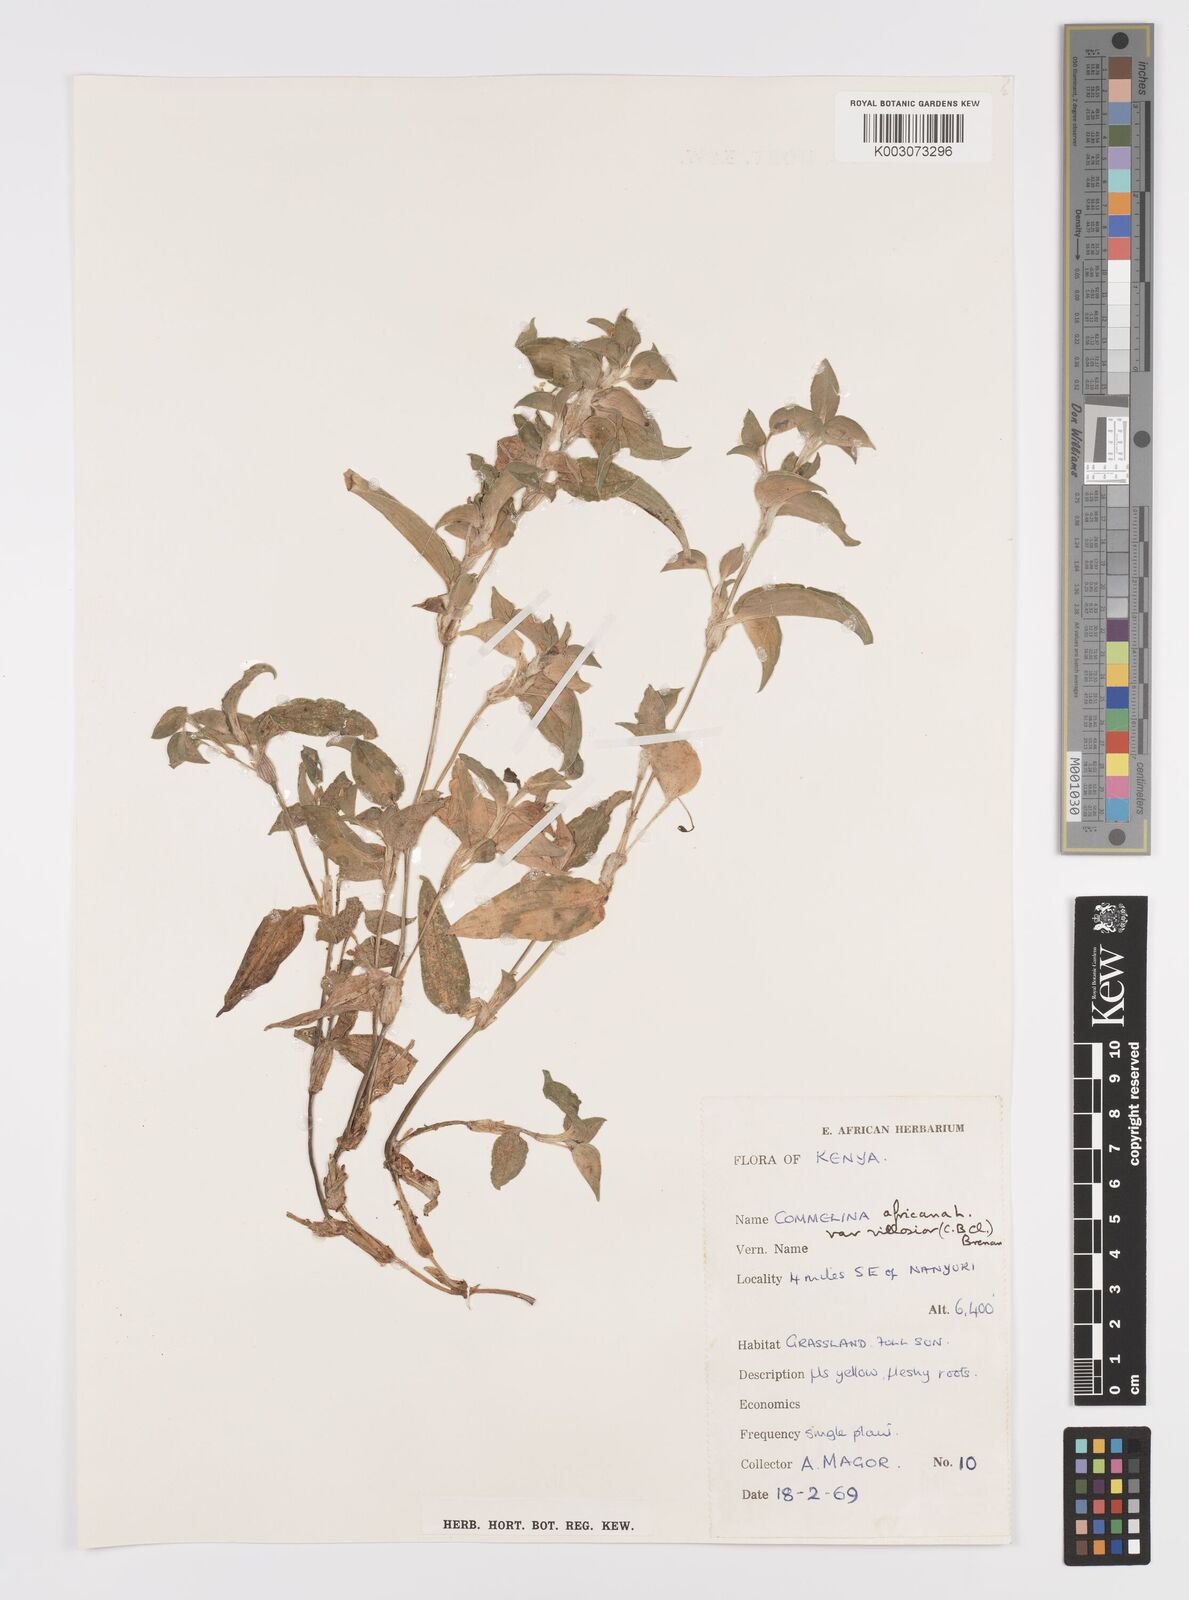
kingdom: Plantae
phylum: Tracheophyta
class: Liliopsida
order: Commelinales
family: Commelinaceae
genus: Commelina
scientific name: Commelina africana
